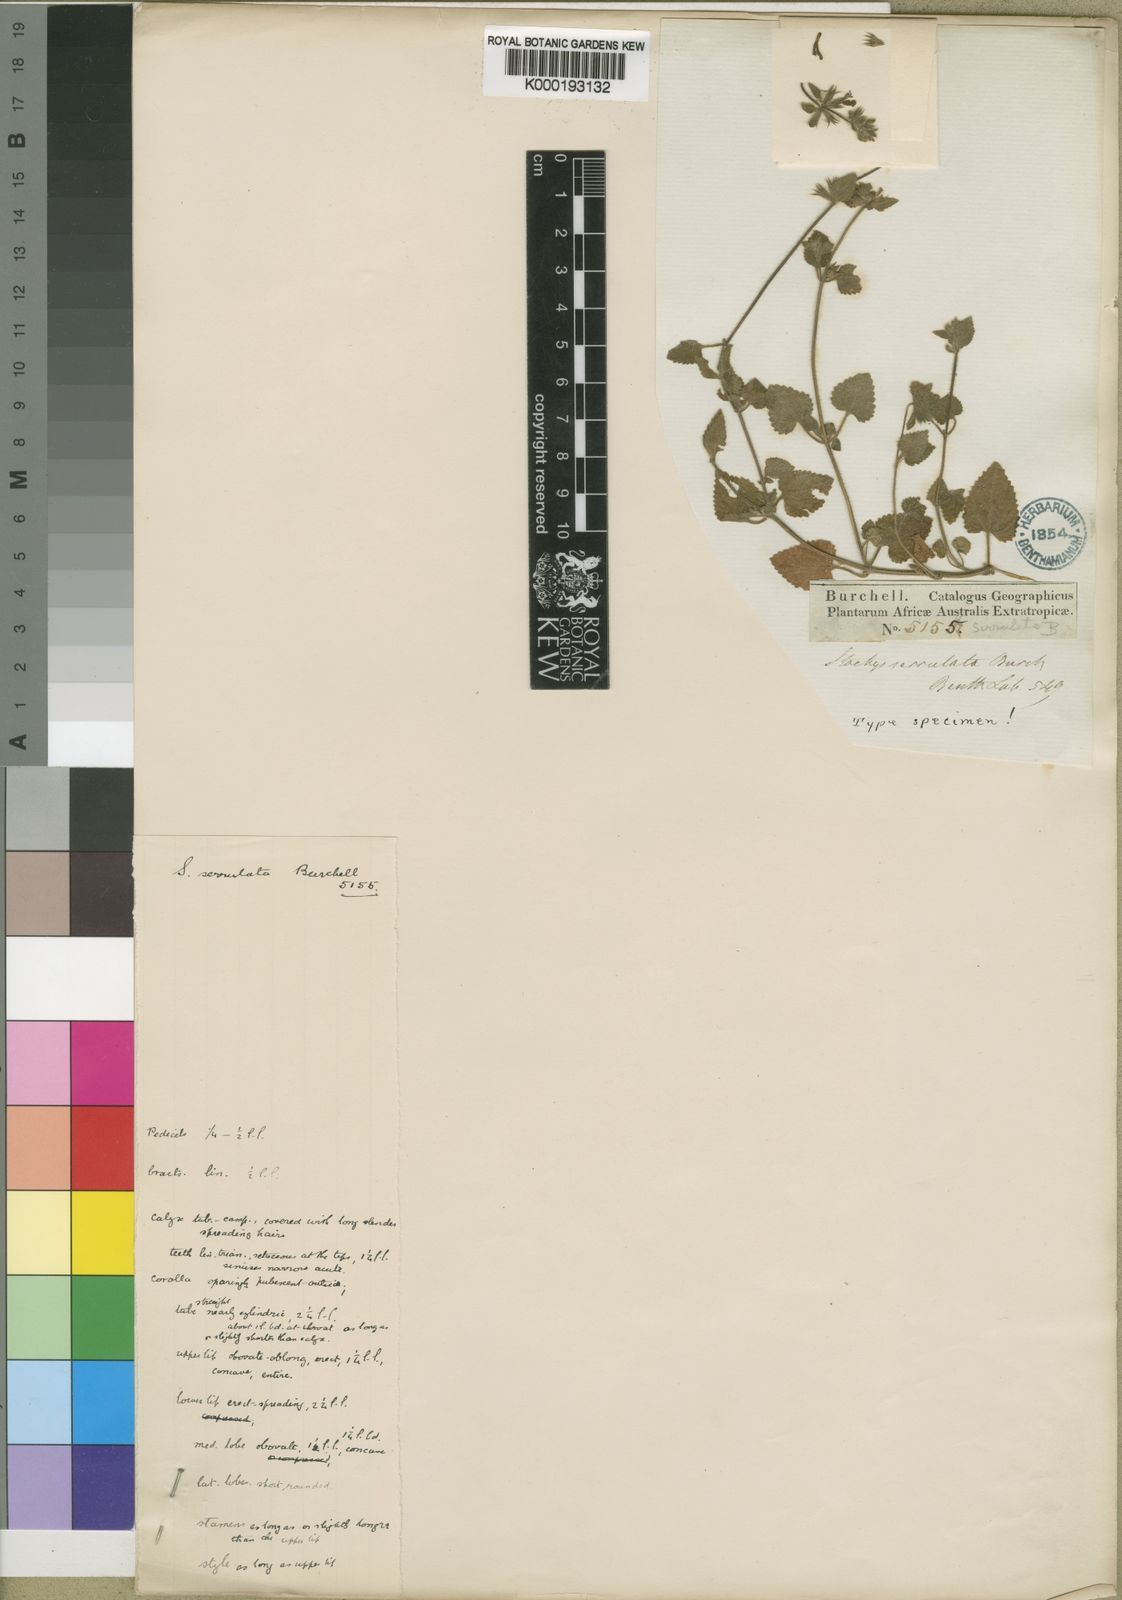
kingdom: Plantae
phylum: Tracheophyta
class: Magnoliopsida
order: Lamiales
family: Lamiaceae
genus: Stachys
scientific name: Stachys aethiopica
